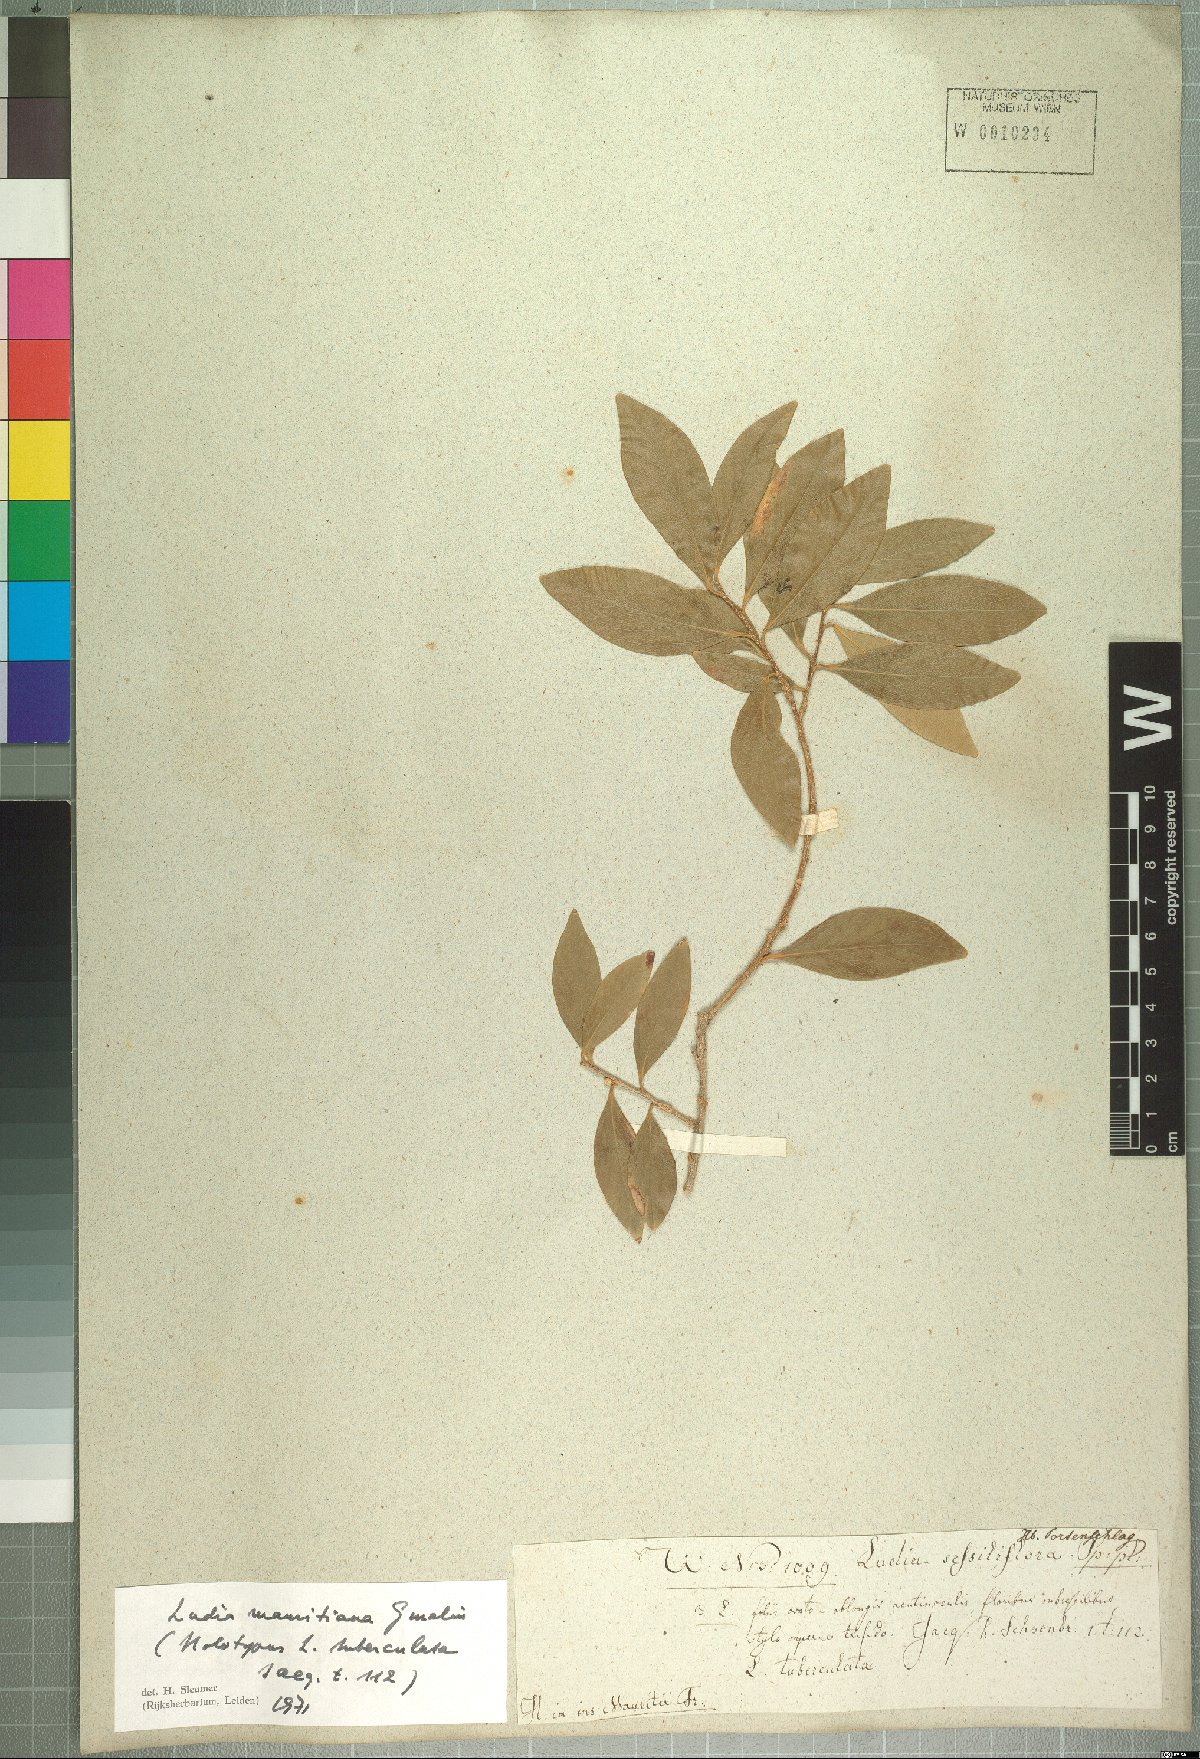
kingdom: Plantae
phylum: Tracheophyta
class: Magnoliopsida
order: Malpighiales
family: Salicaceae
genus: Ludia
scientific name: Ludia mauritiana
